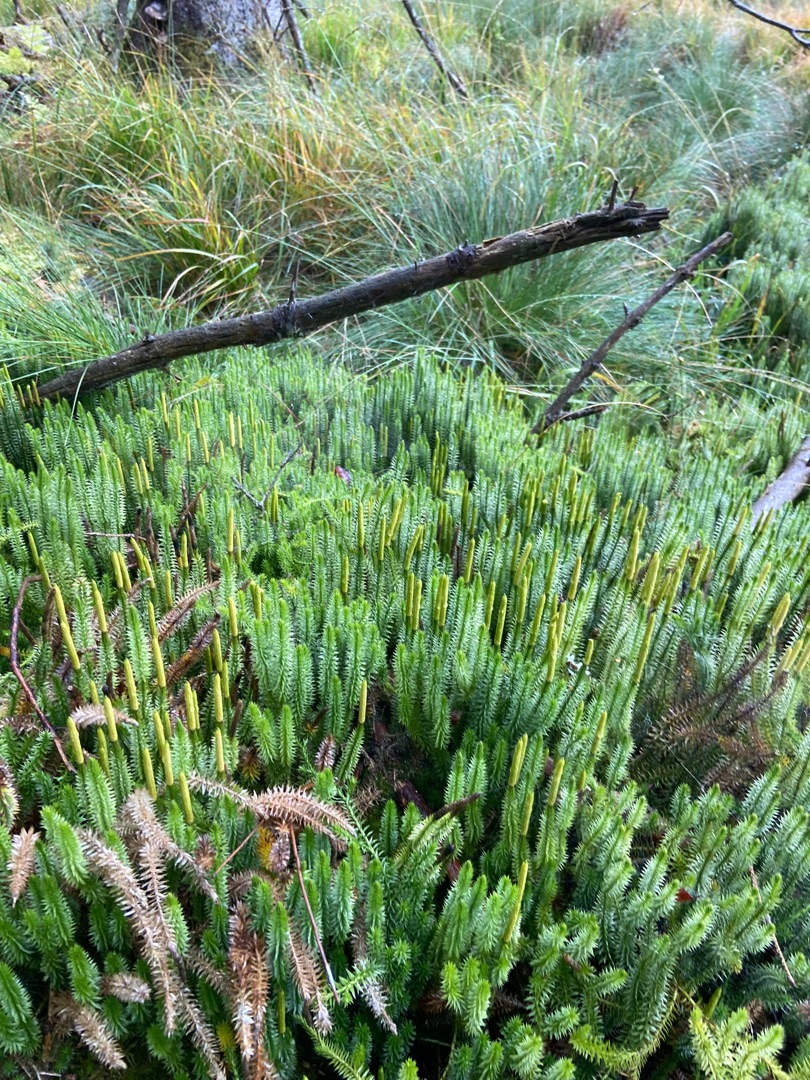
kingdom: Plantae
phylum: Tracheophyta
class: Lycopodiopsida
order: Lycopodiales
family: Lycopodiaceae
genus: Spinulum
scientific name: Spinulum annotinum
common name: Femradet ulvefod
